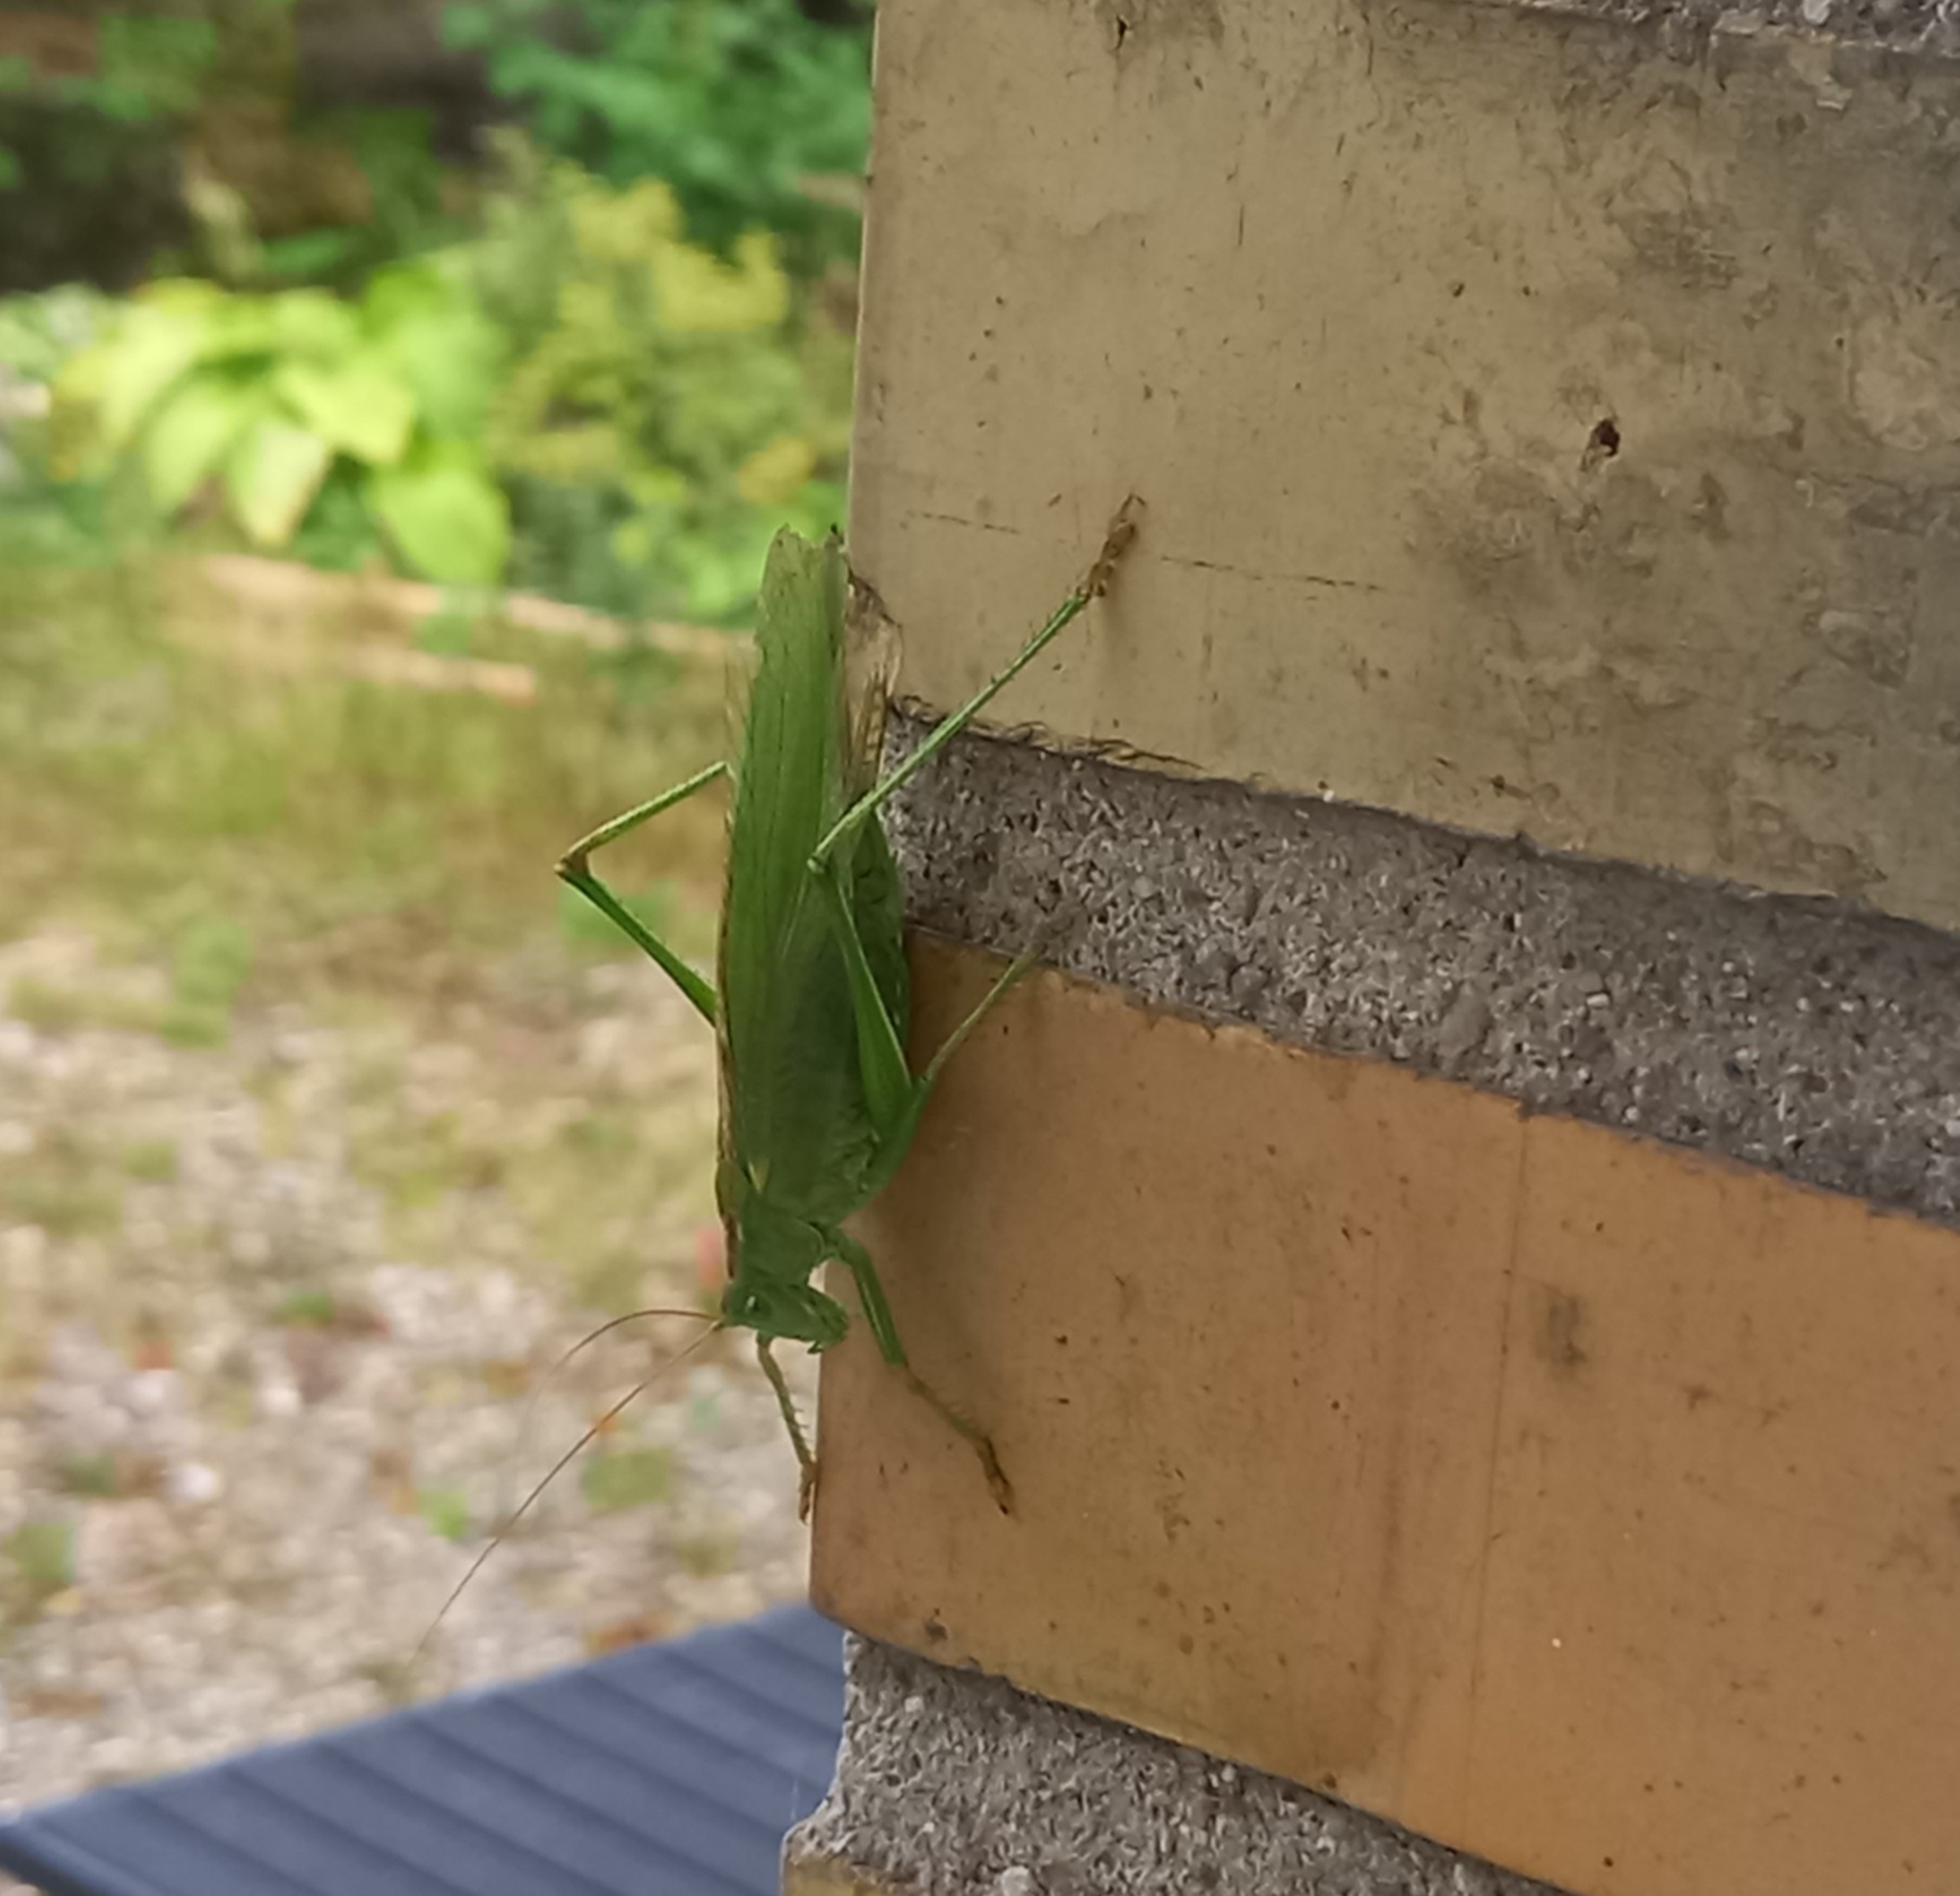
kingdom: Animalia
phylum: Arthropoda
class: Insecta
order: Orthoptera
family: Tettigoniidae
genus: Tettigonia
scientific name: Tettigonia viridissima
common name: Stor grøn løvgræshoppe
